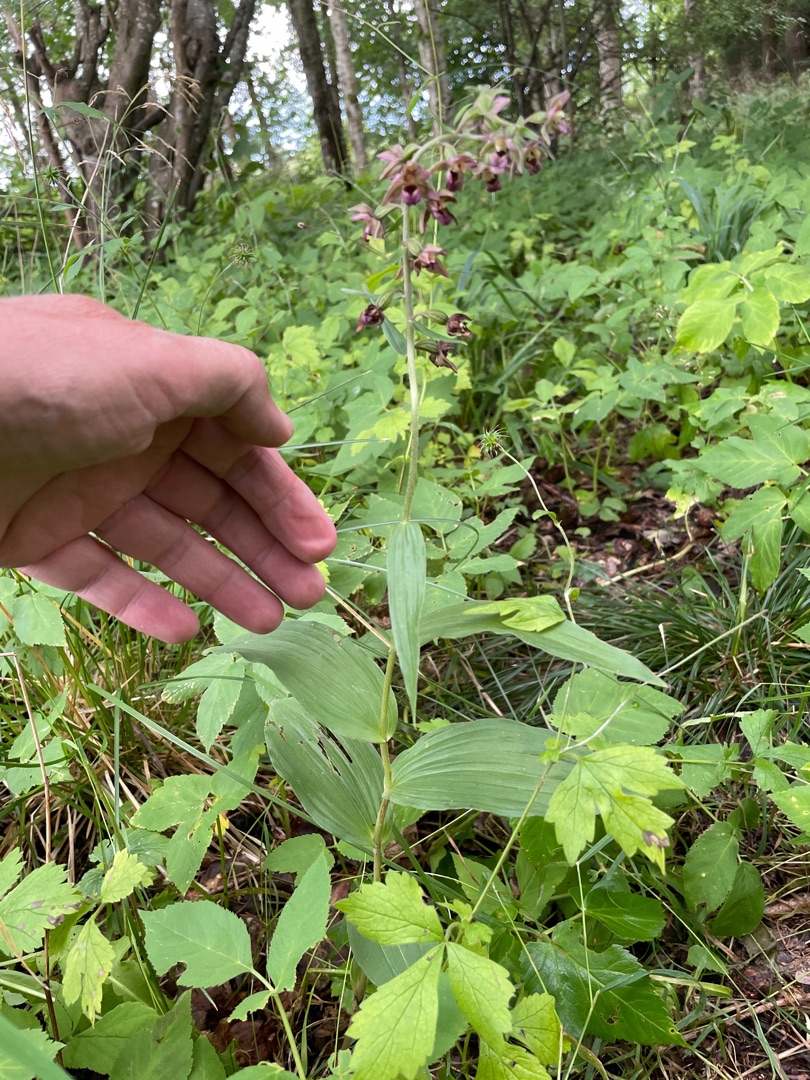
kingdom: Plantae
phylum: Tracheophyta
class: Liliopsida
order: Asparagales
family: Orchidaceae
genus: Epipactis
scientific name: Epipactis helleborine
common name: Skov-hullæbe
